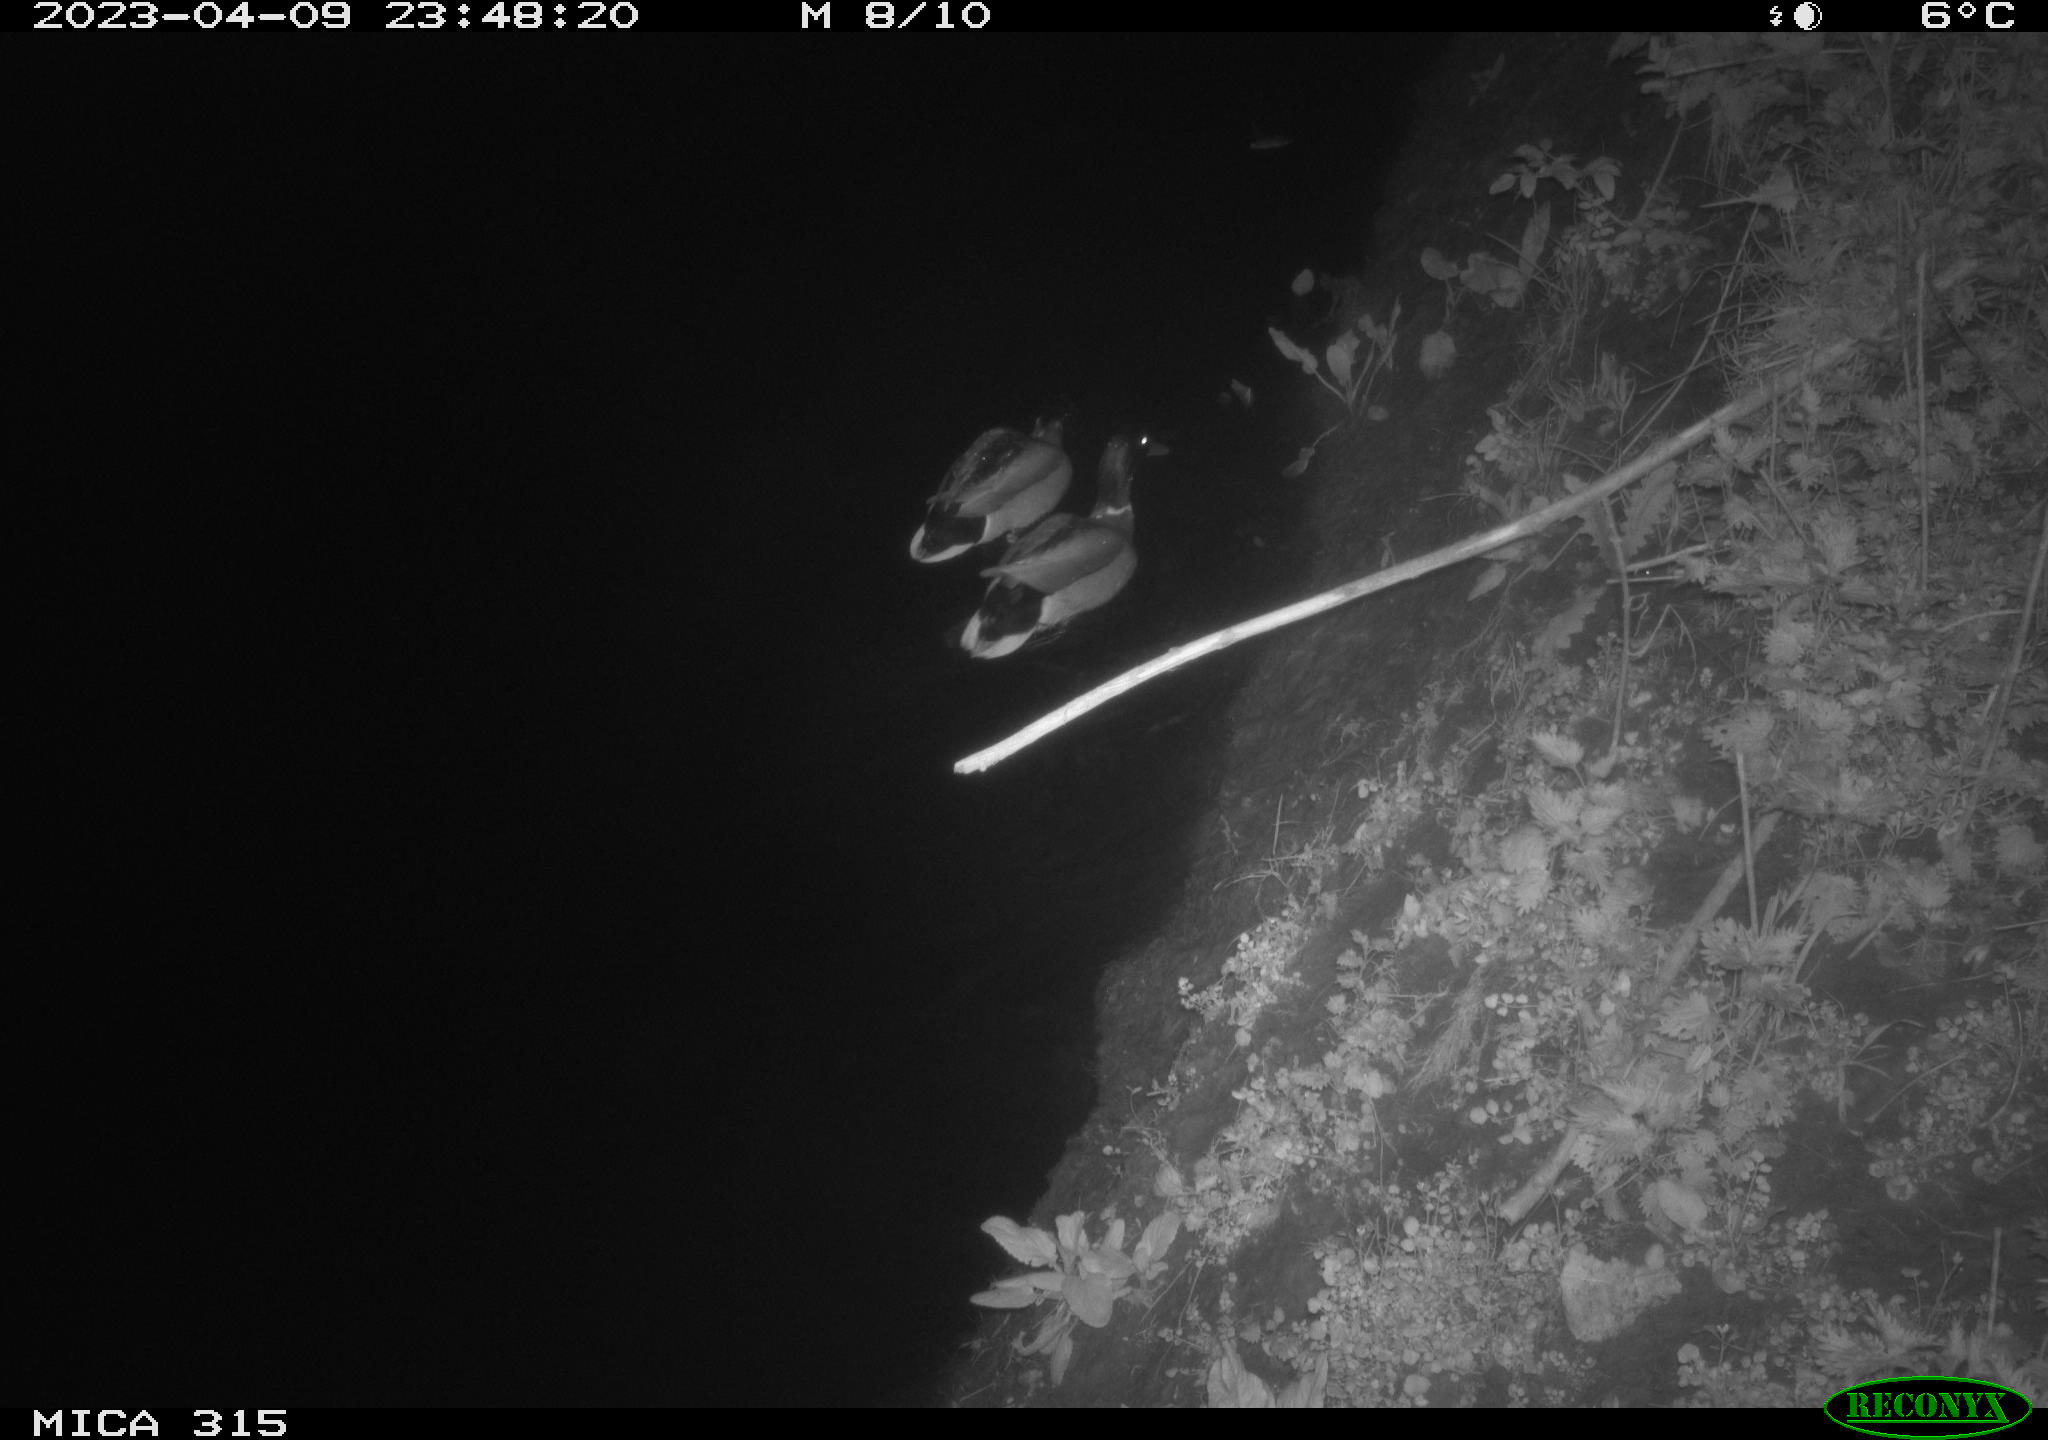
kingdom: Animalia
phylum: Chordata
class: Aves
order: Anseriformes
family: Anatidae
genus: Anas
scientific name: Anas
